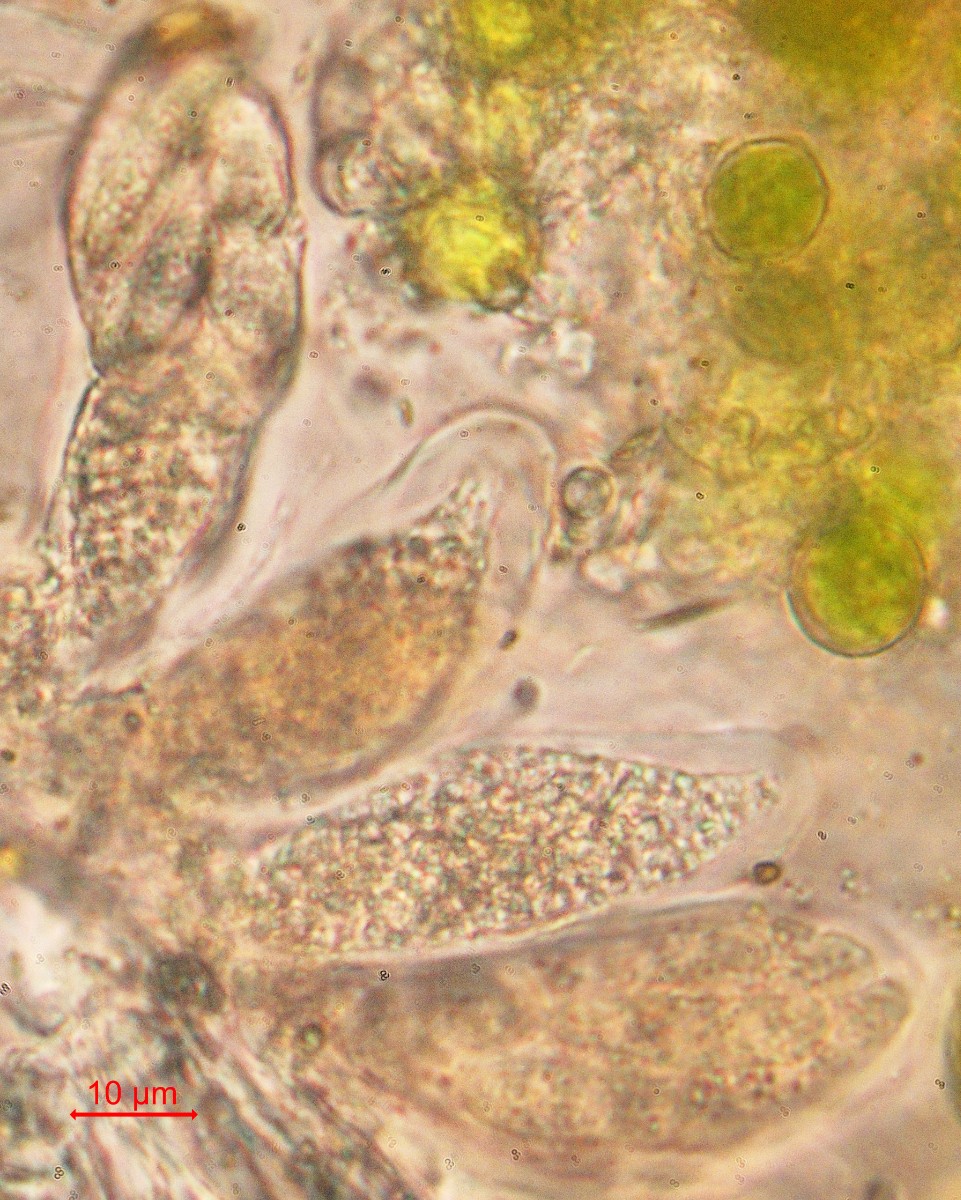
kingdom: Fungi
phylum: Ascomycota
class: Eurotiomycetes
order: Verrucariales
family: Verrucariaceae
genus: Telogalla
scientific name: Telogalla olivieri
